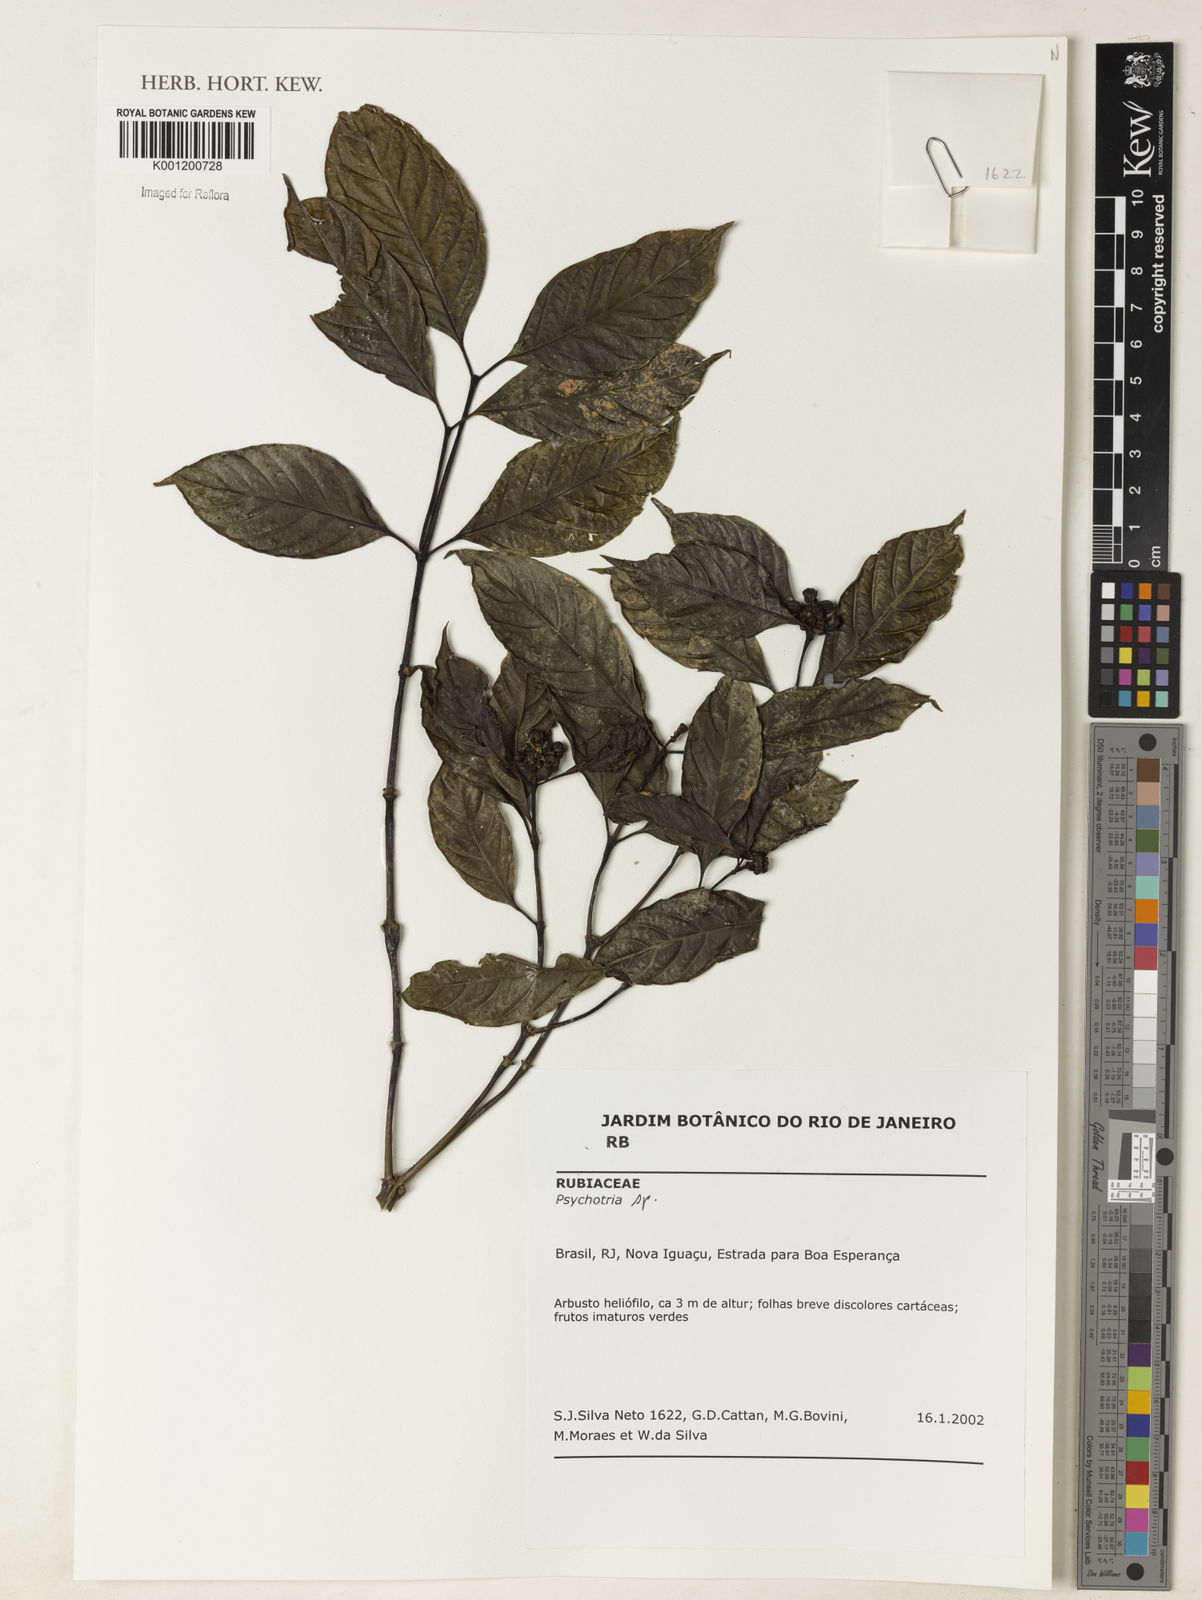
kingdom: Plantae
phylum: Tracheophyta
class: Magnoliopsida
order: Gentianales
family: Rubiaceae
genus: Psychotria
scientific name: Psychotria
